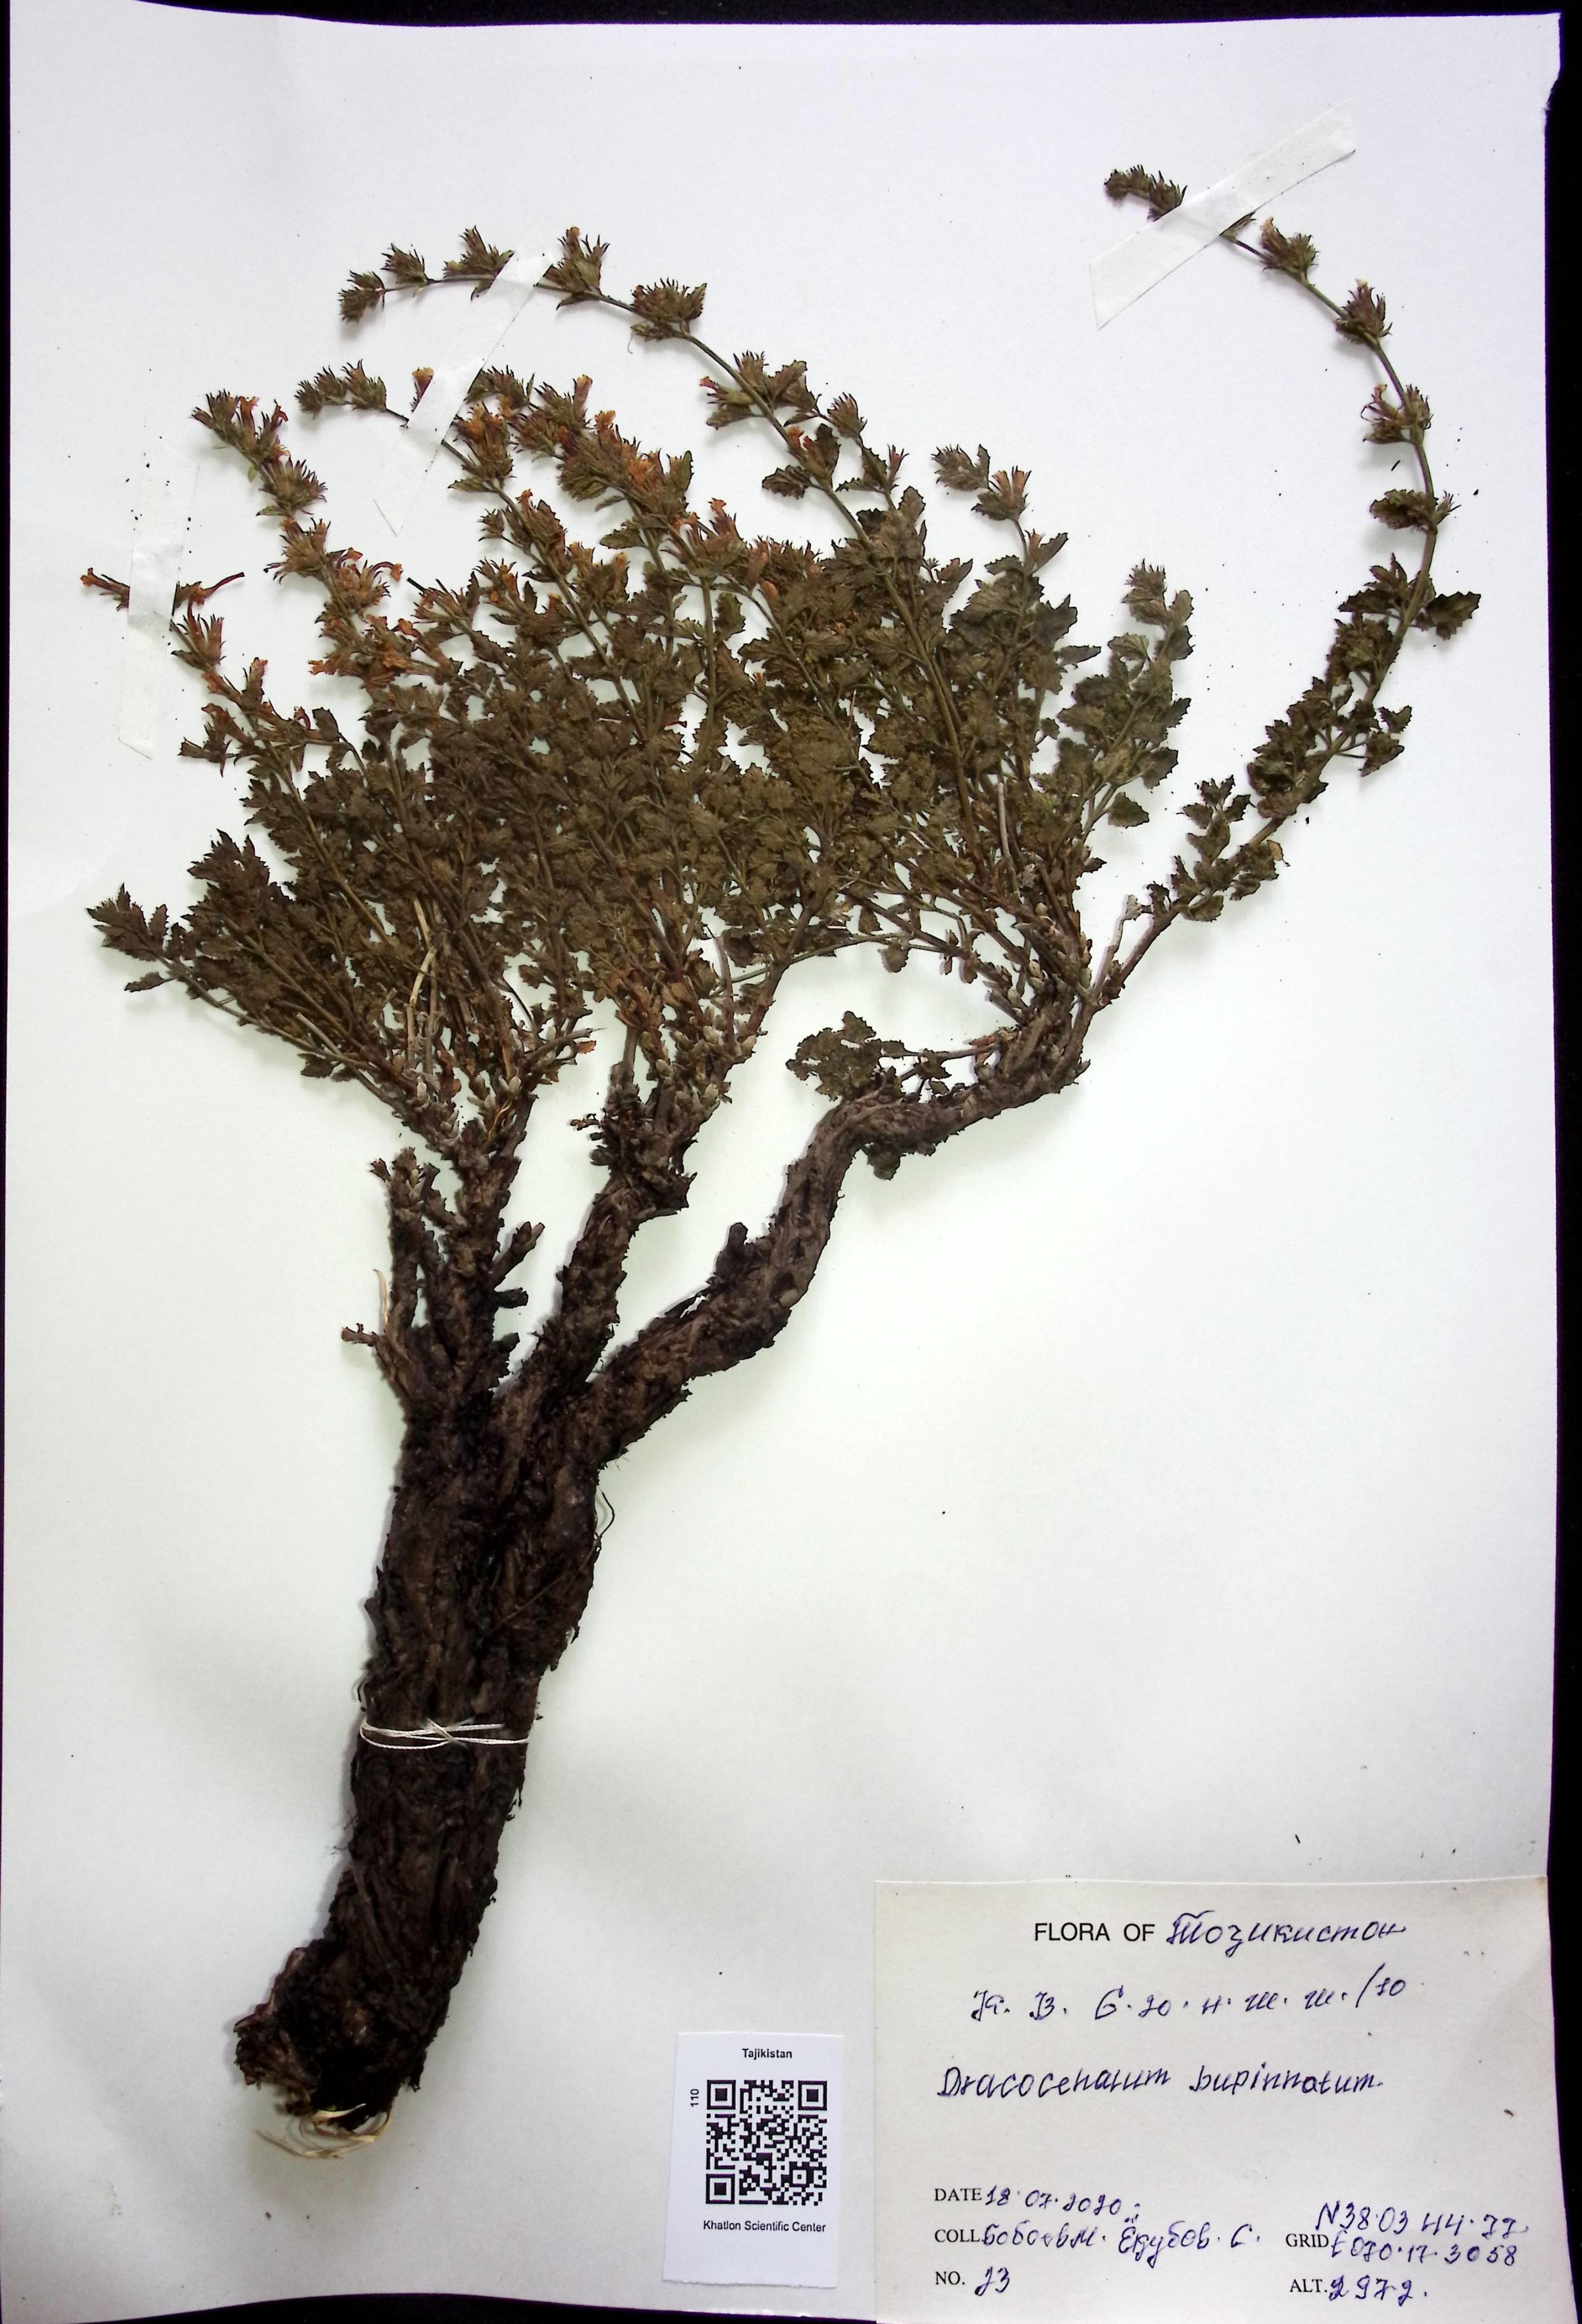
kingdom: Plantae
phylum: Tracheophyta
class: Magnoliopsida
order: Lamiales
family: Lamiaceae
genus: Dracocephalum
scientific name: Dracocephalum bipinnatum
